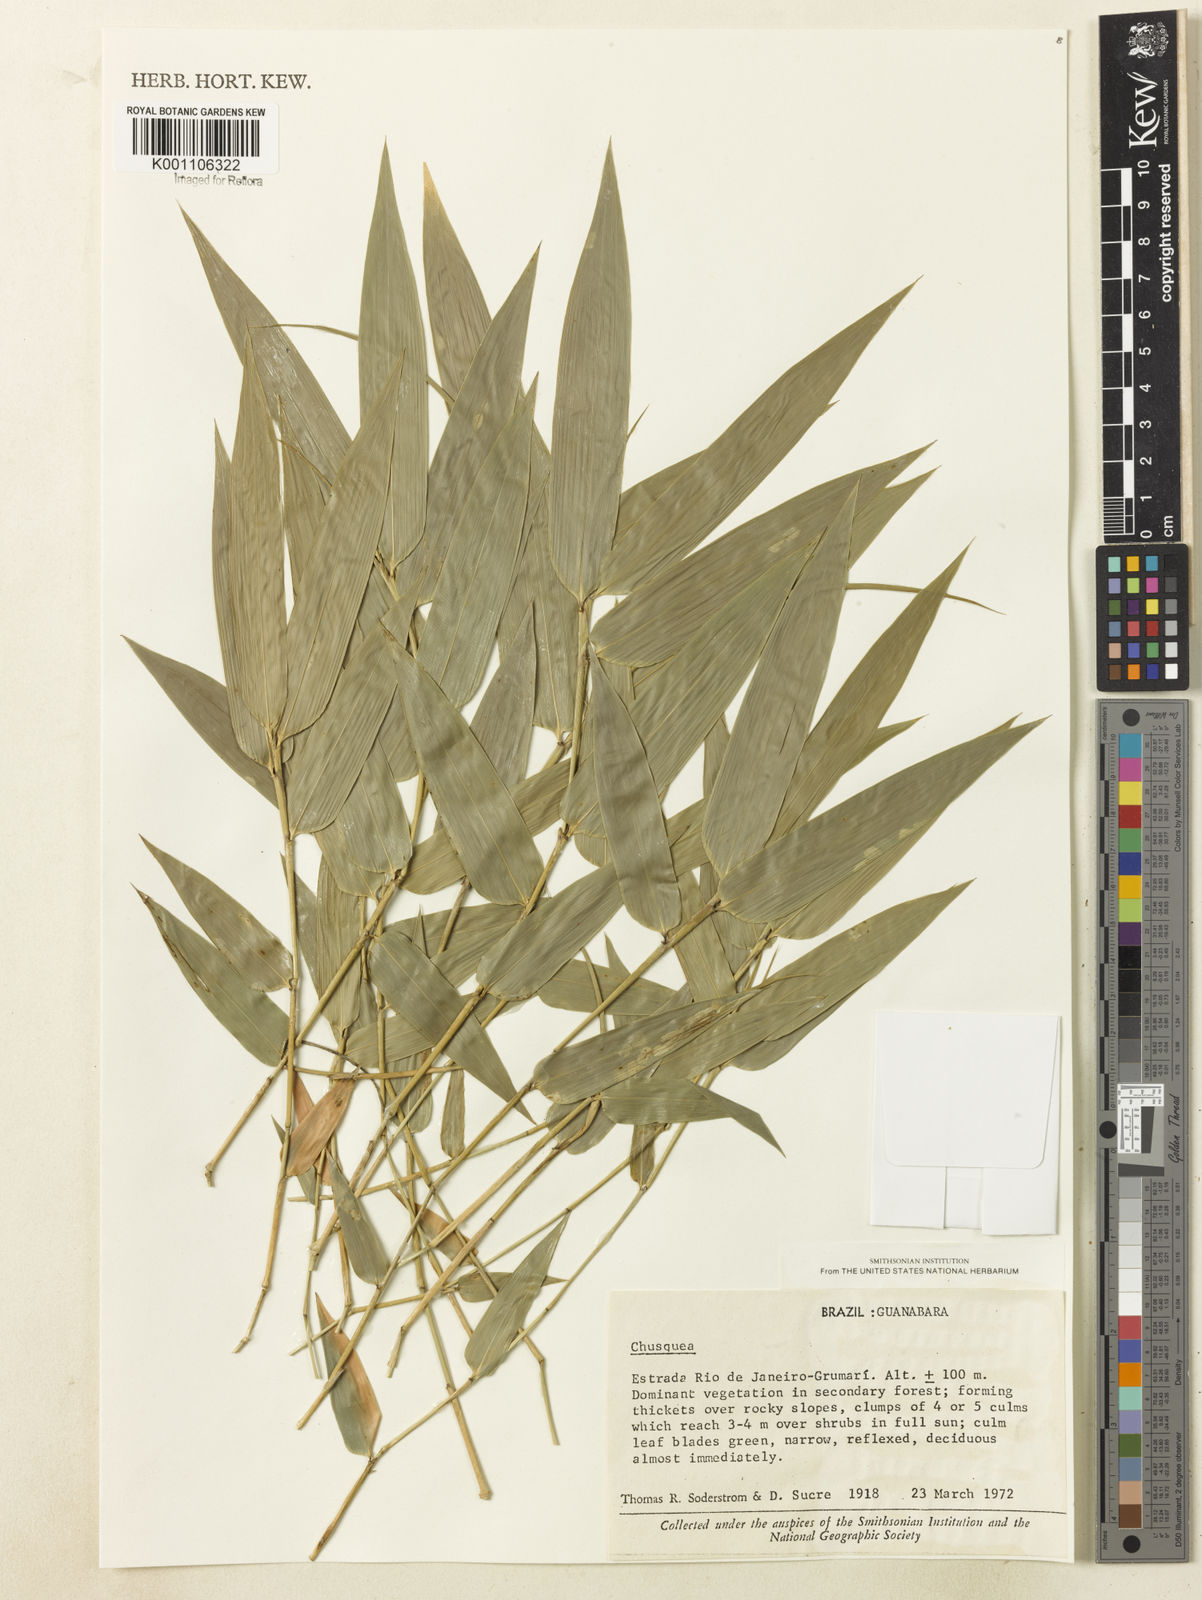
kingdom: Plantae
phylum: Tracheophyta
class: Liliopsida
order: Poales
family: Poaceae
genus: Chusquea
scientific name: Chusquea
